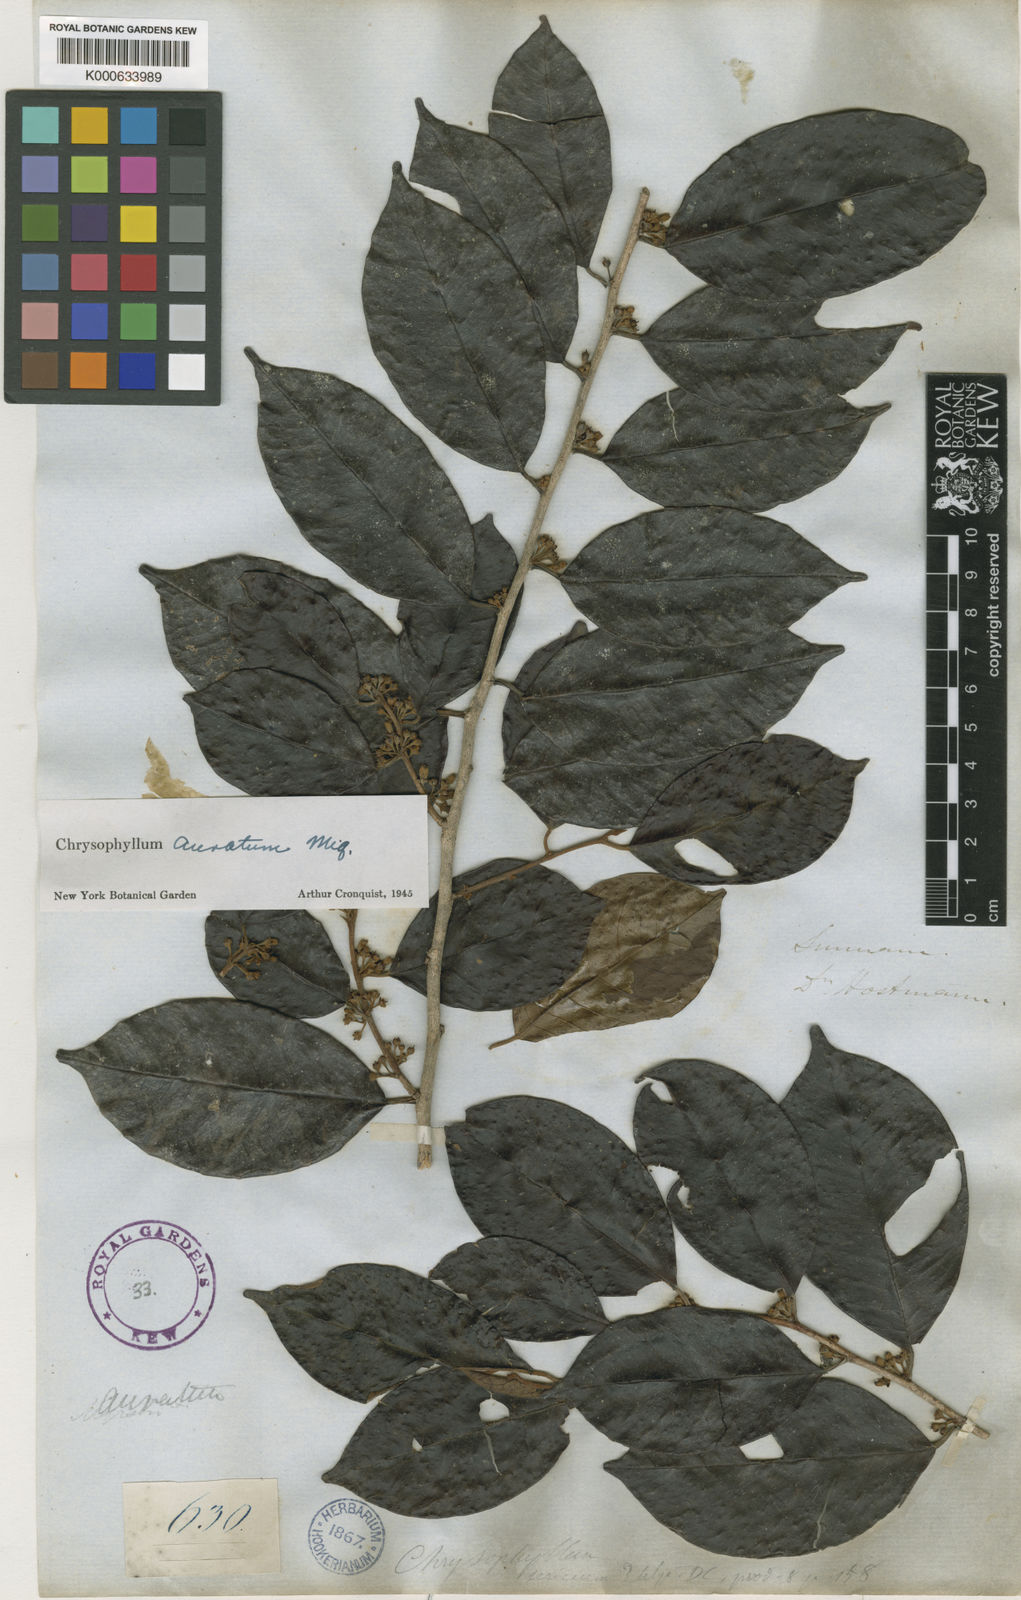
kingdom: Plantae
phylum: Tracheophyta
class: Magnoliopsida
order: Ericales
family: Sapotaceae
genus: Chrysophyllum
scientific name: Chrysophyllum argenteum
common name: Smooth star apple
